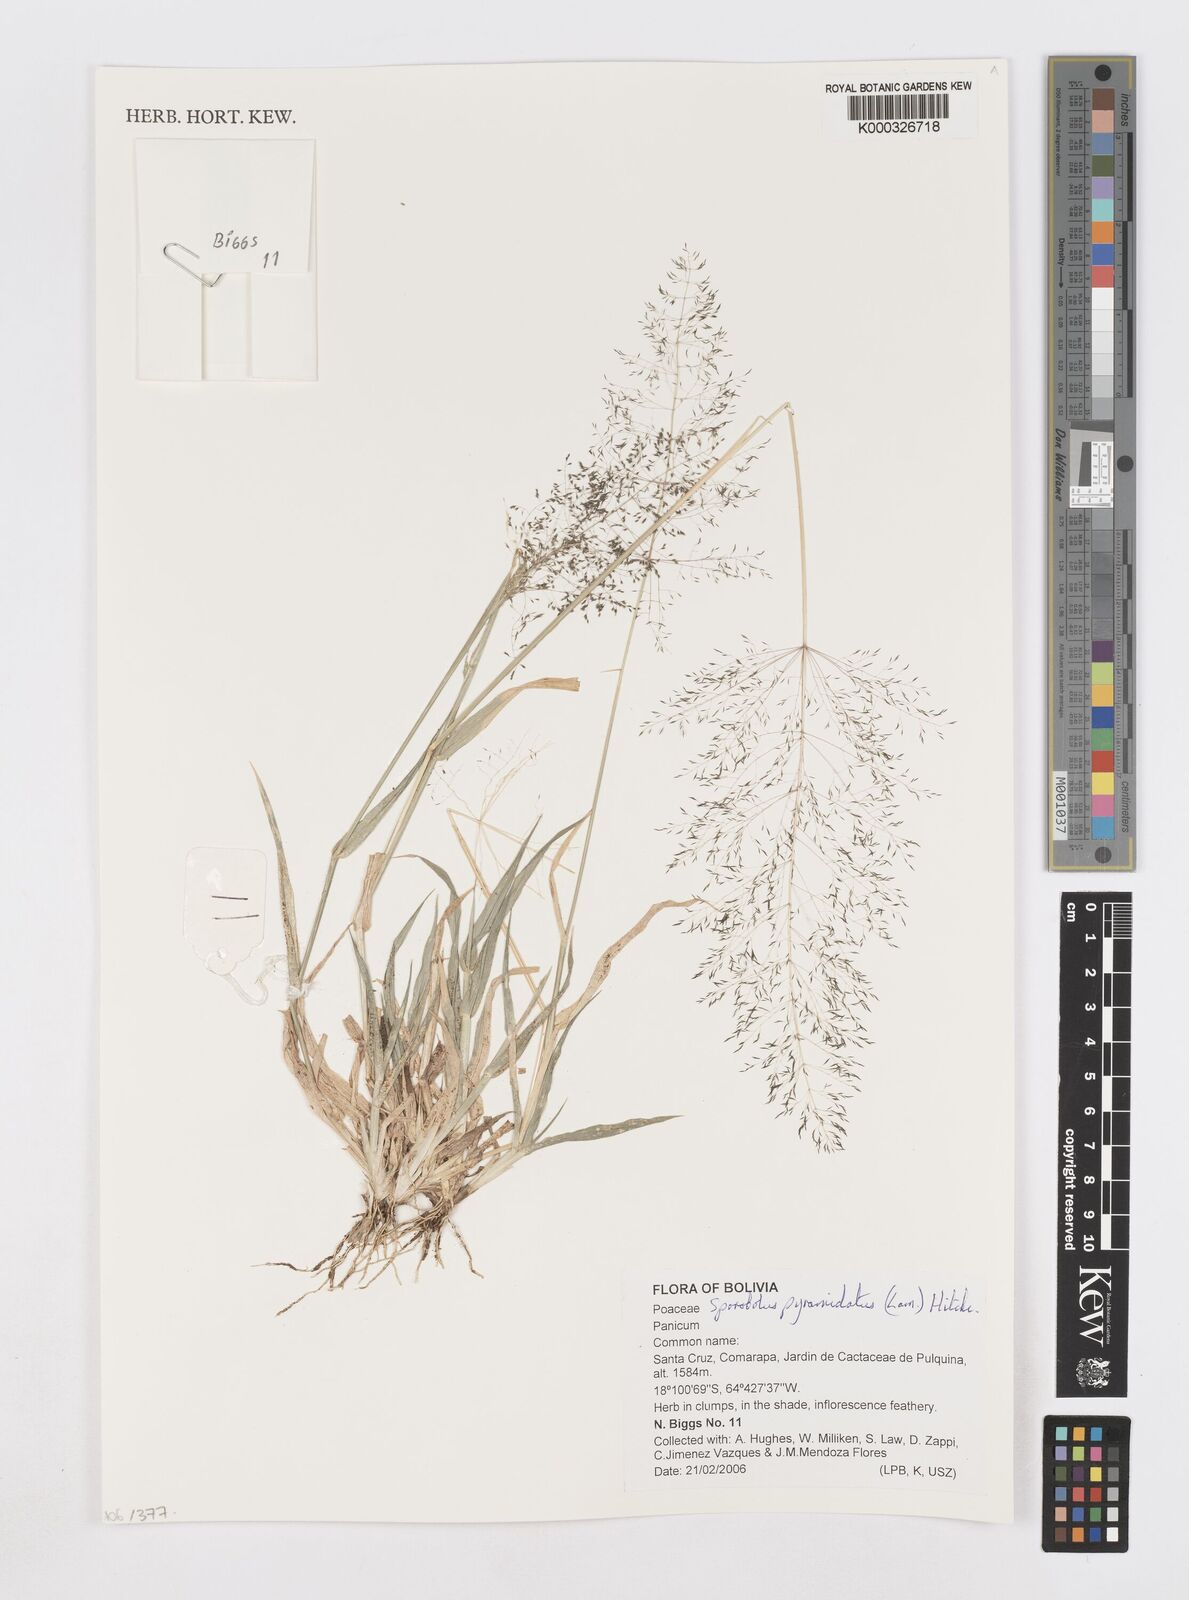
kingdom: Plantae
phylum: Tracheophyta
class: Liliopsida
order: Poales
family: Poaceae
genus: Sporobolus
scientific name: Sporobolus pyramidatus
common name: Whorled dropseed
